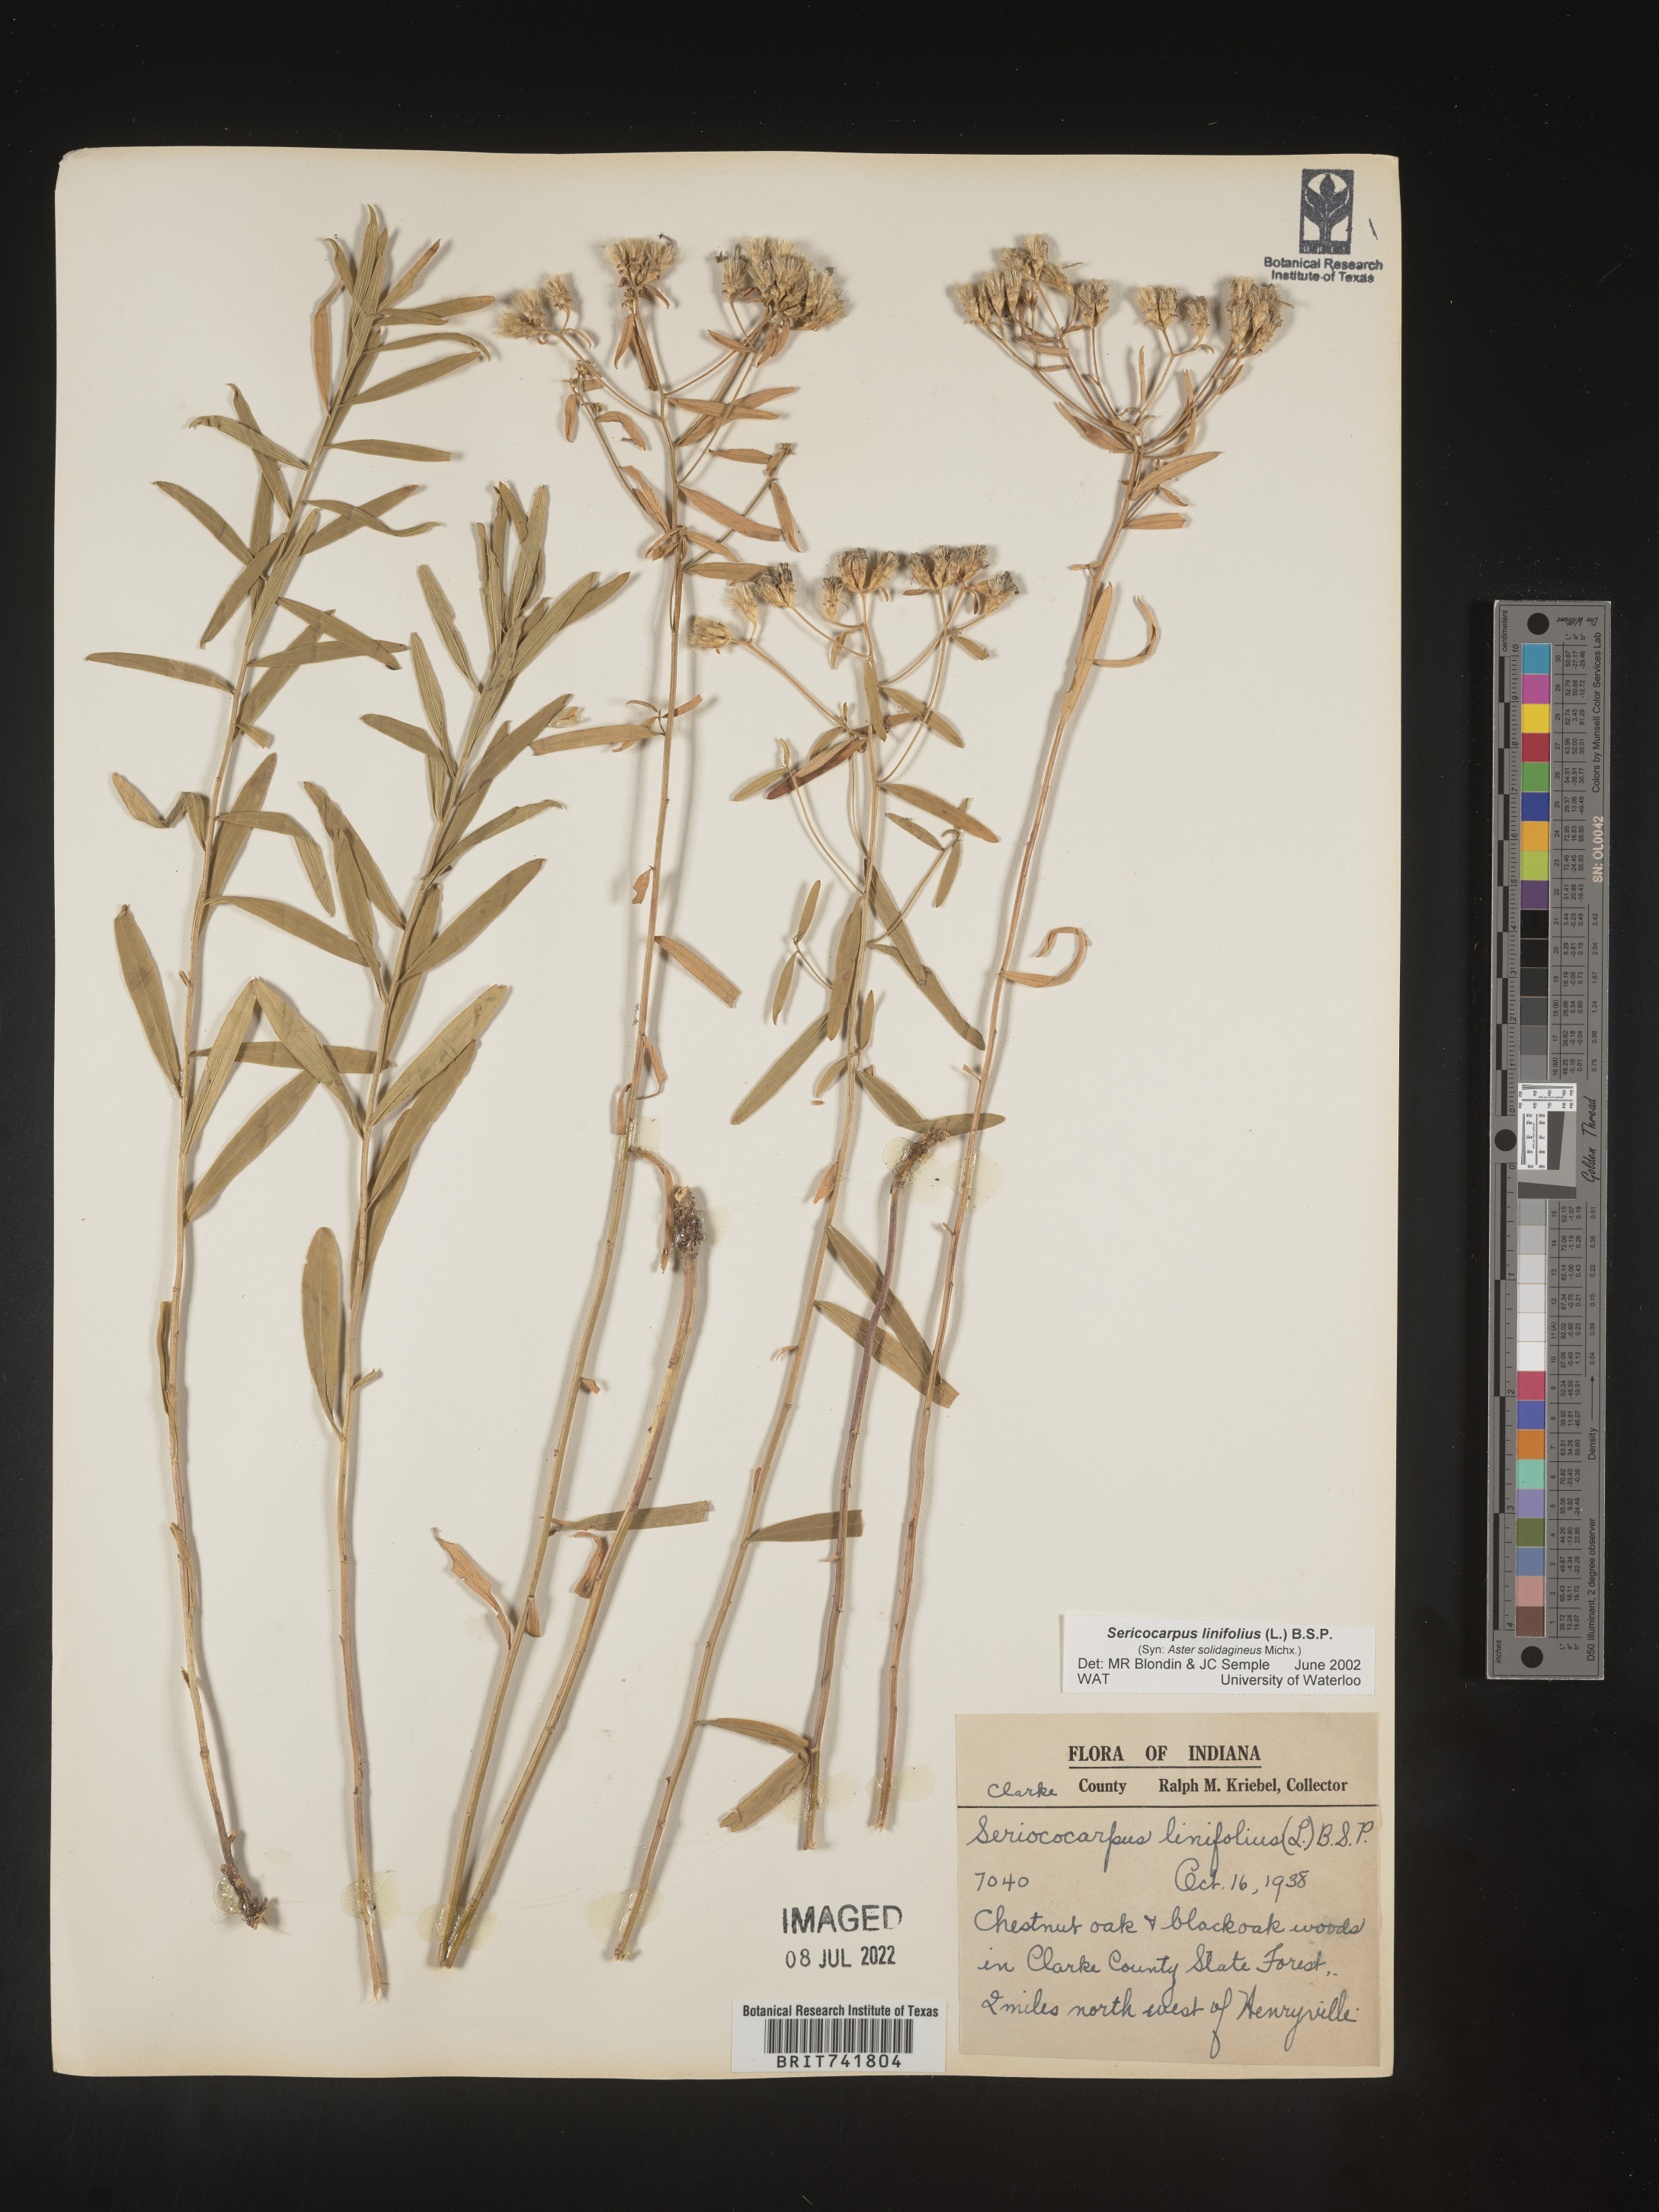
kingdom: Plantae
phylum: Tracheophyta
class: Magnoliopsida
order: Asterales
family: Asteraceae
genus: Sericocarpus
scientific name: Sericocarpus linifolius
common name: Narrow-leaf aster
